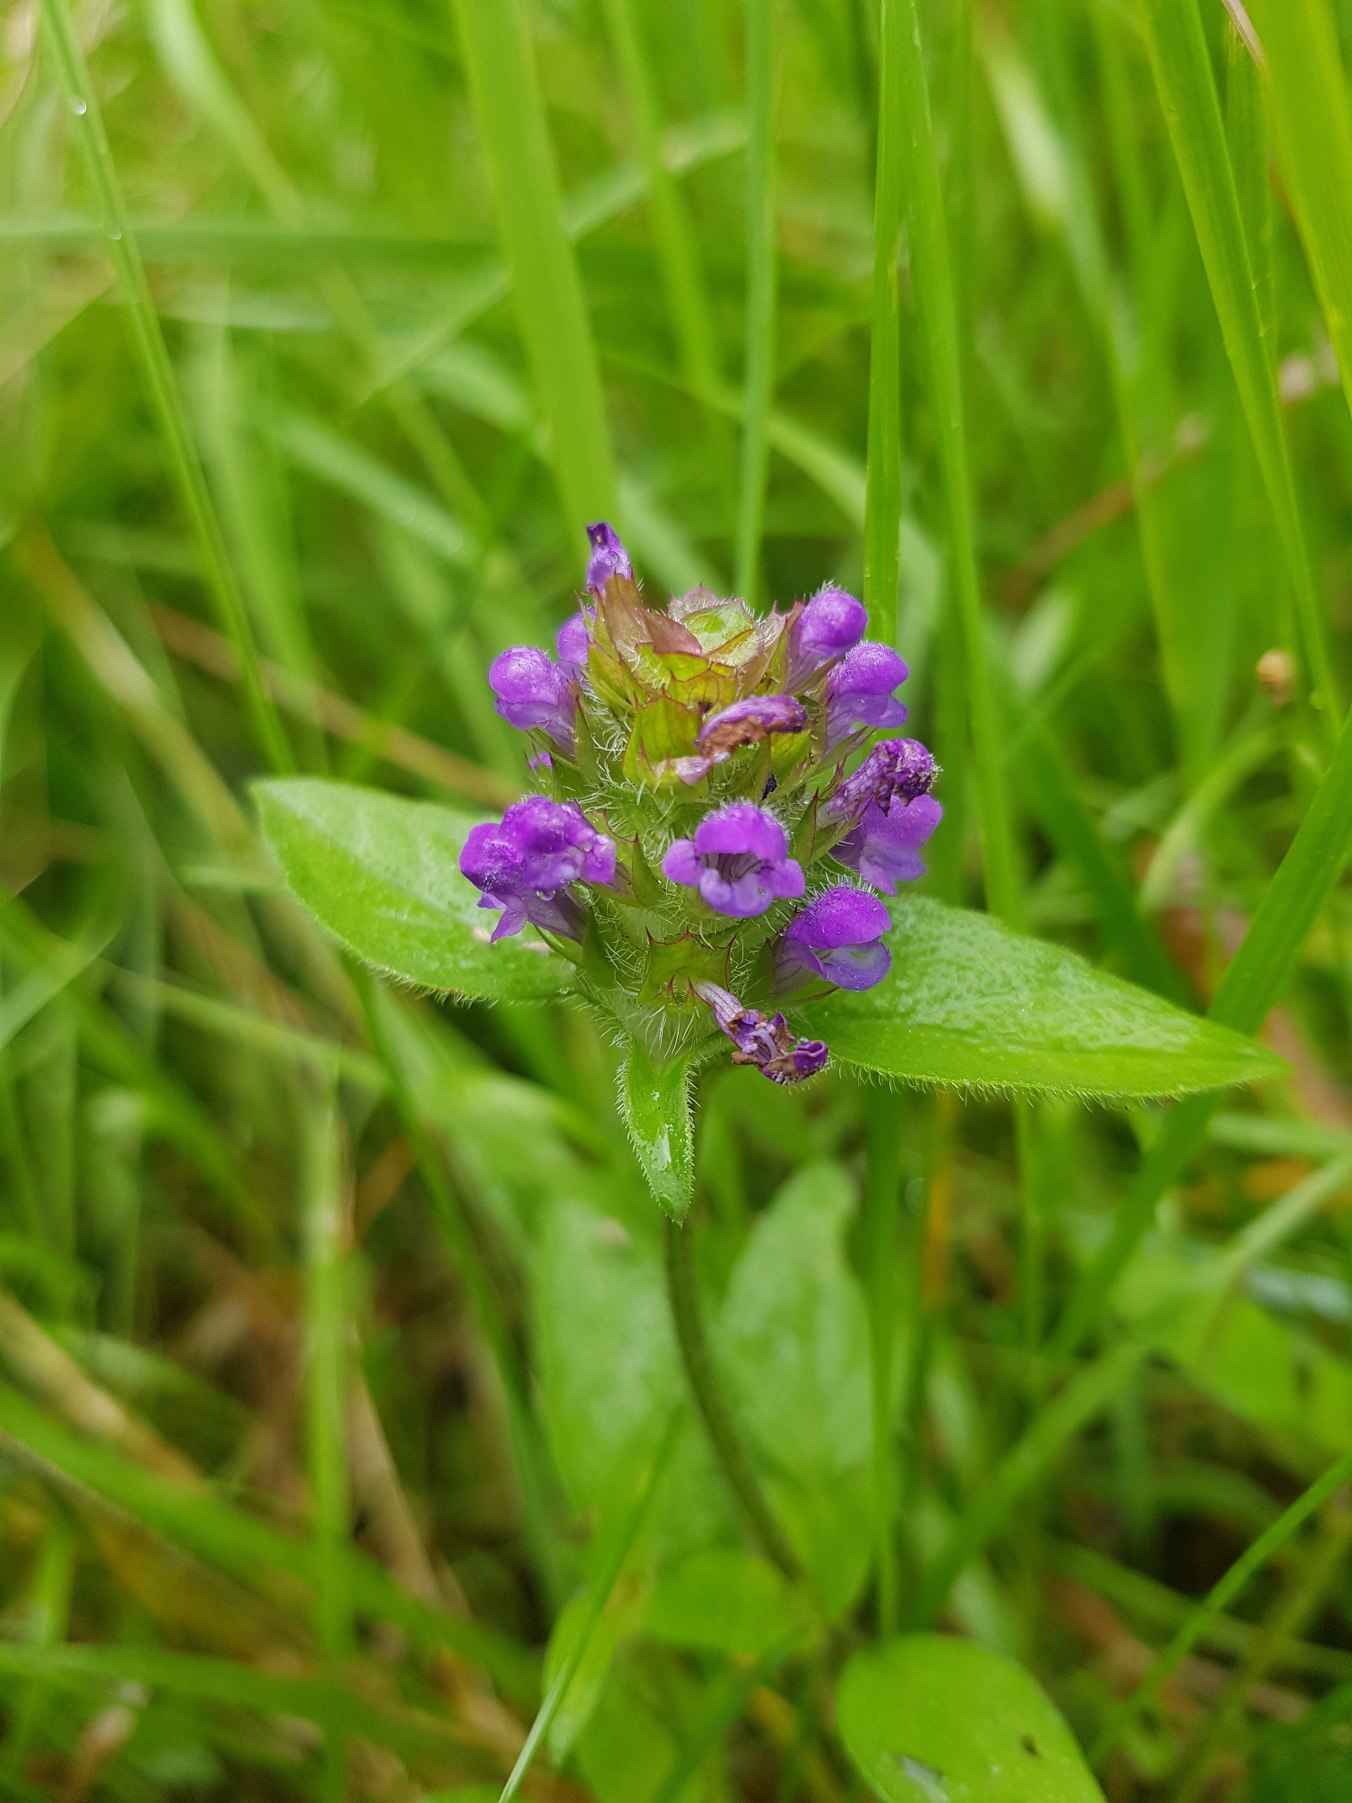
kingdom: Plantae
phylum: Tracheophyta
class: Magnoliopsida
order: Lamiales
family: Lamiaceae
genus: Prunella
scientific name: Prunella vulgaris
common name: Almindelig brunelle
